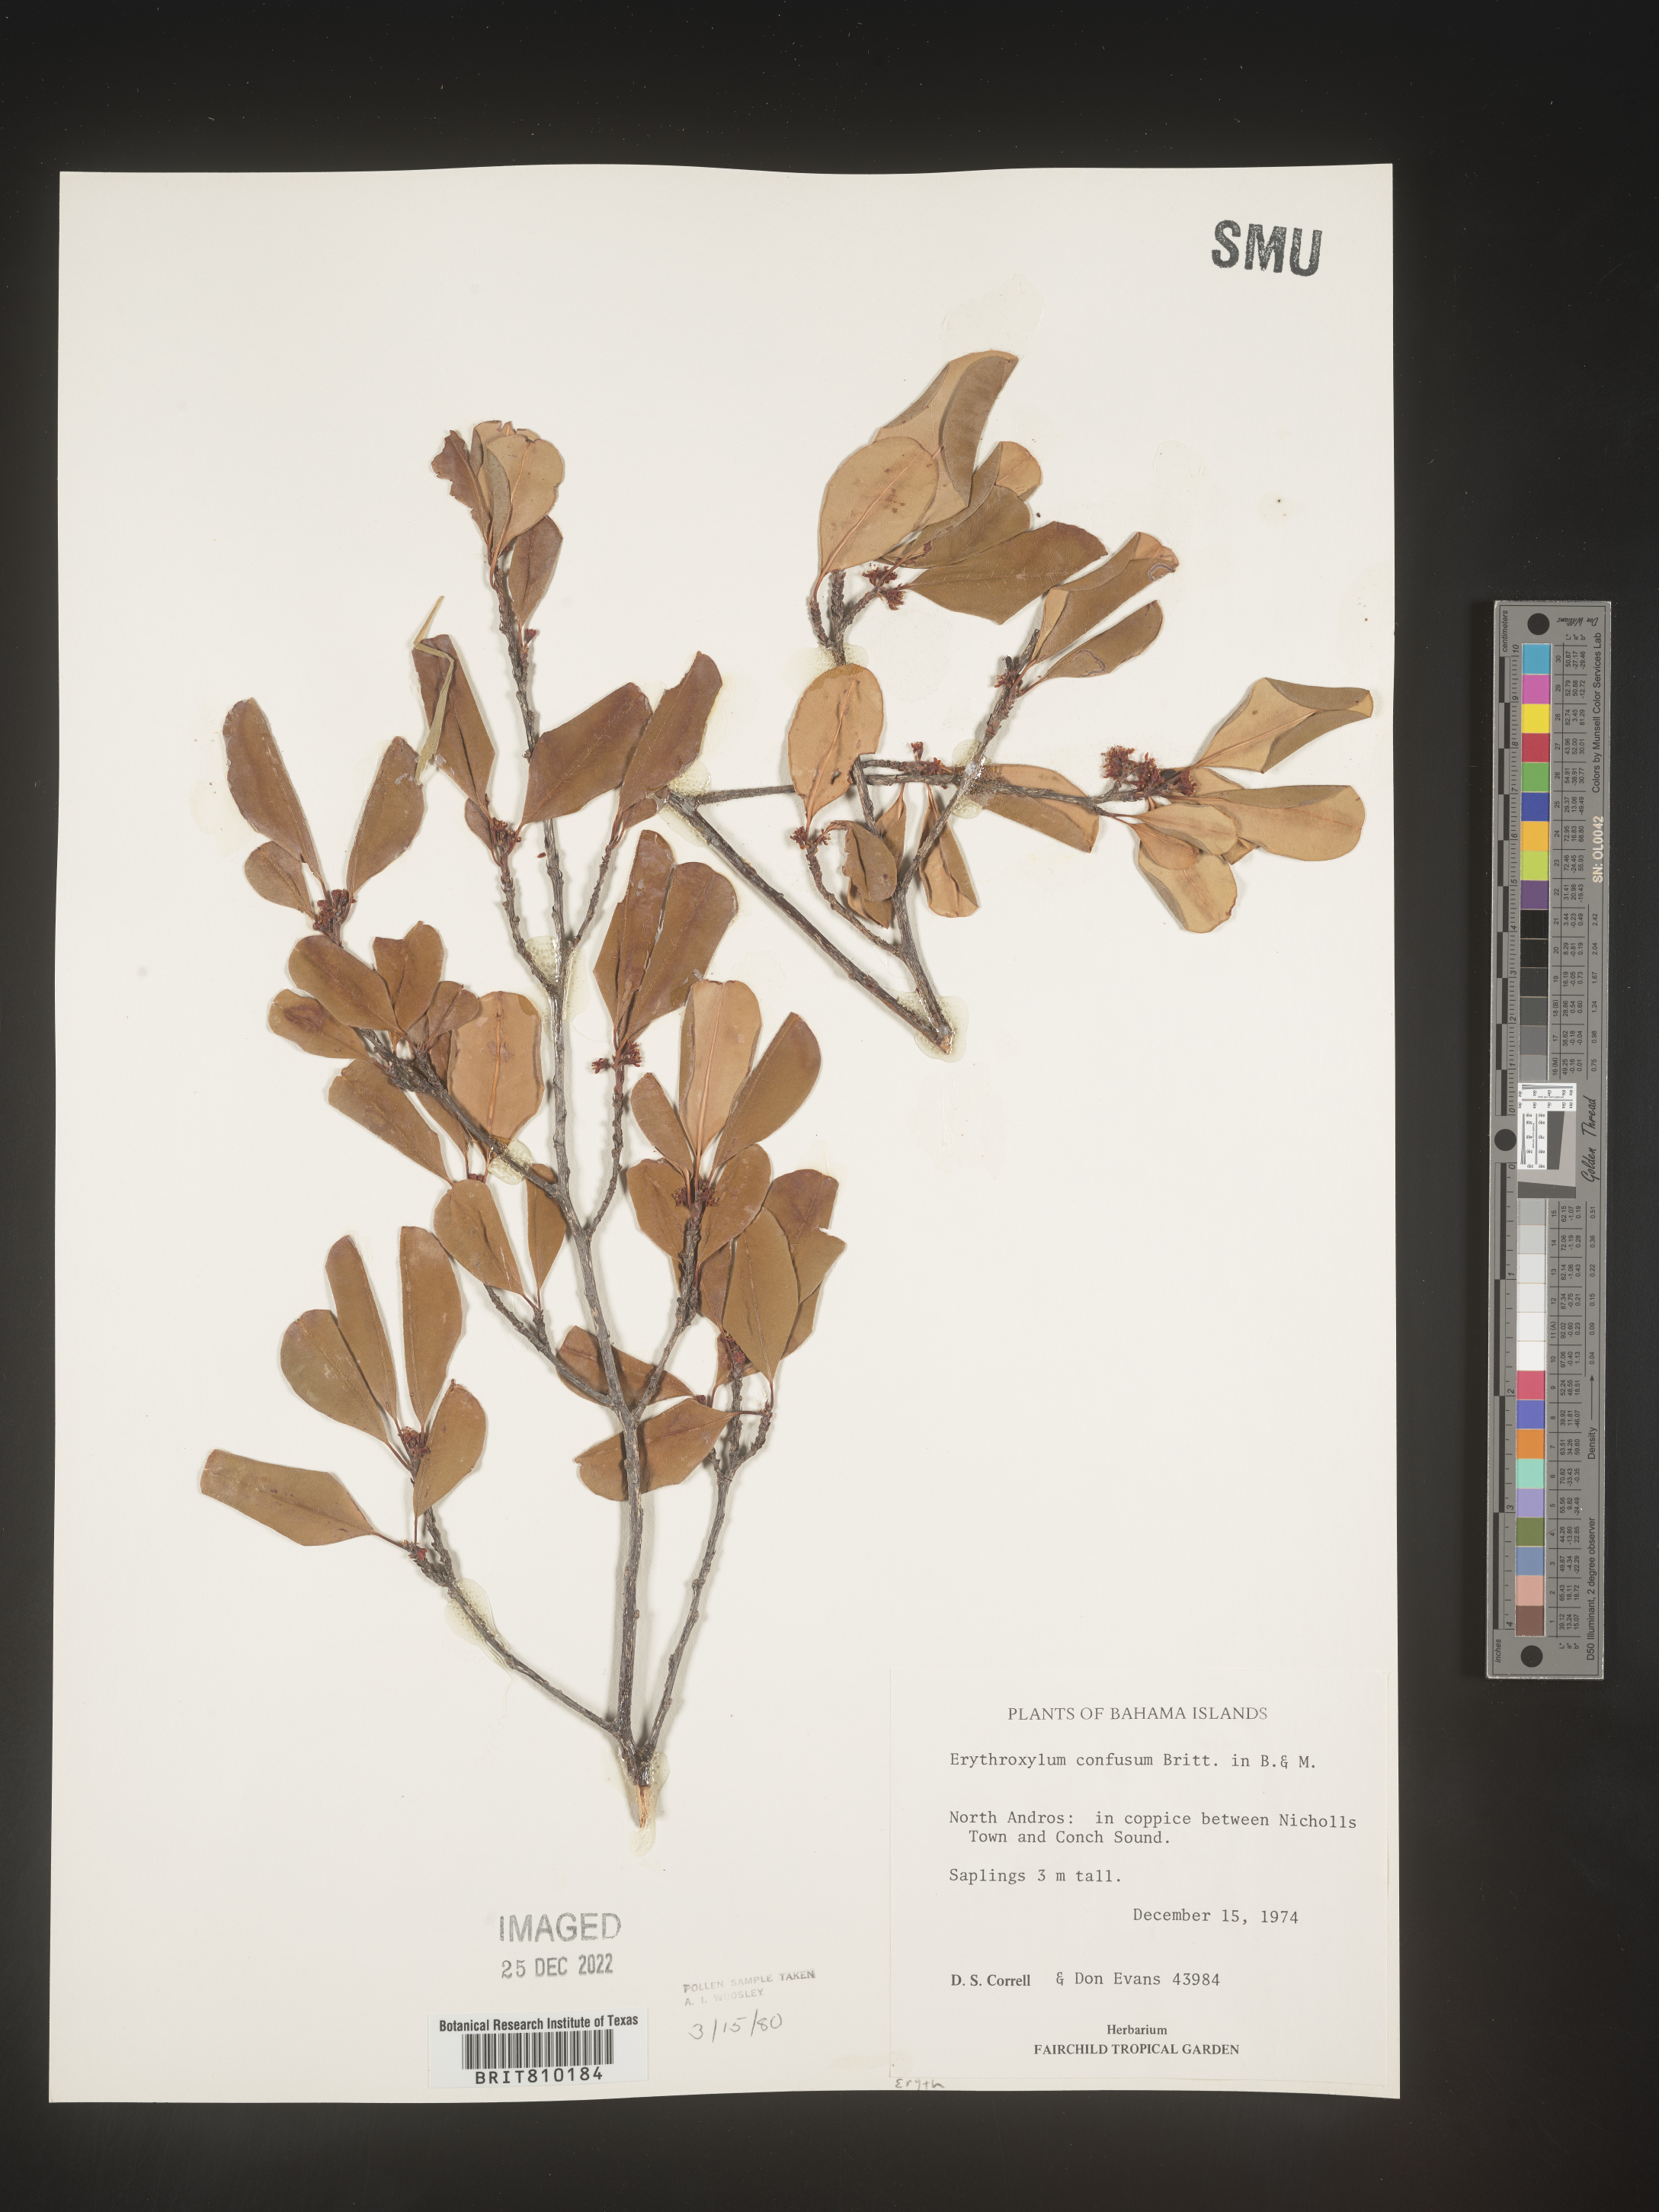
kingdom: Plantae
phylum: Tracheophyta
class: Magnoliopsida
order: Malpighiales
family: Erythroxylaceae
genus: Erythroxylum
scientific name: Erythroxylum
